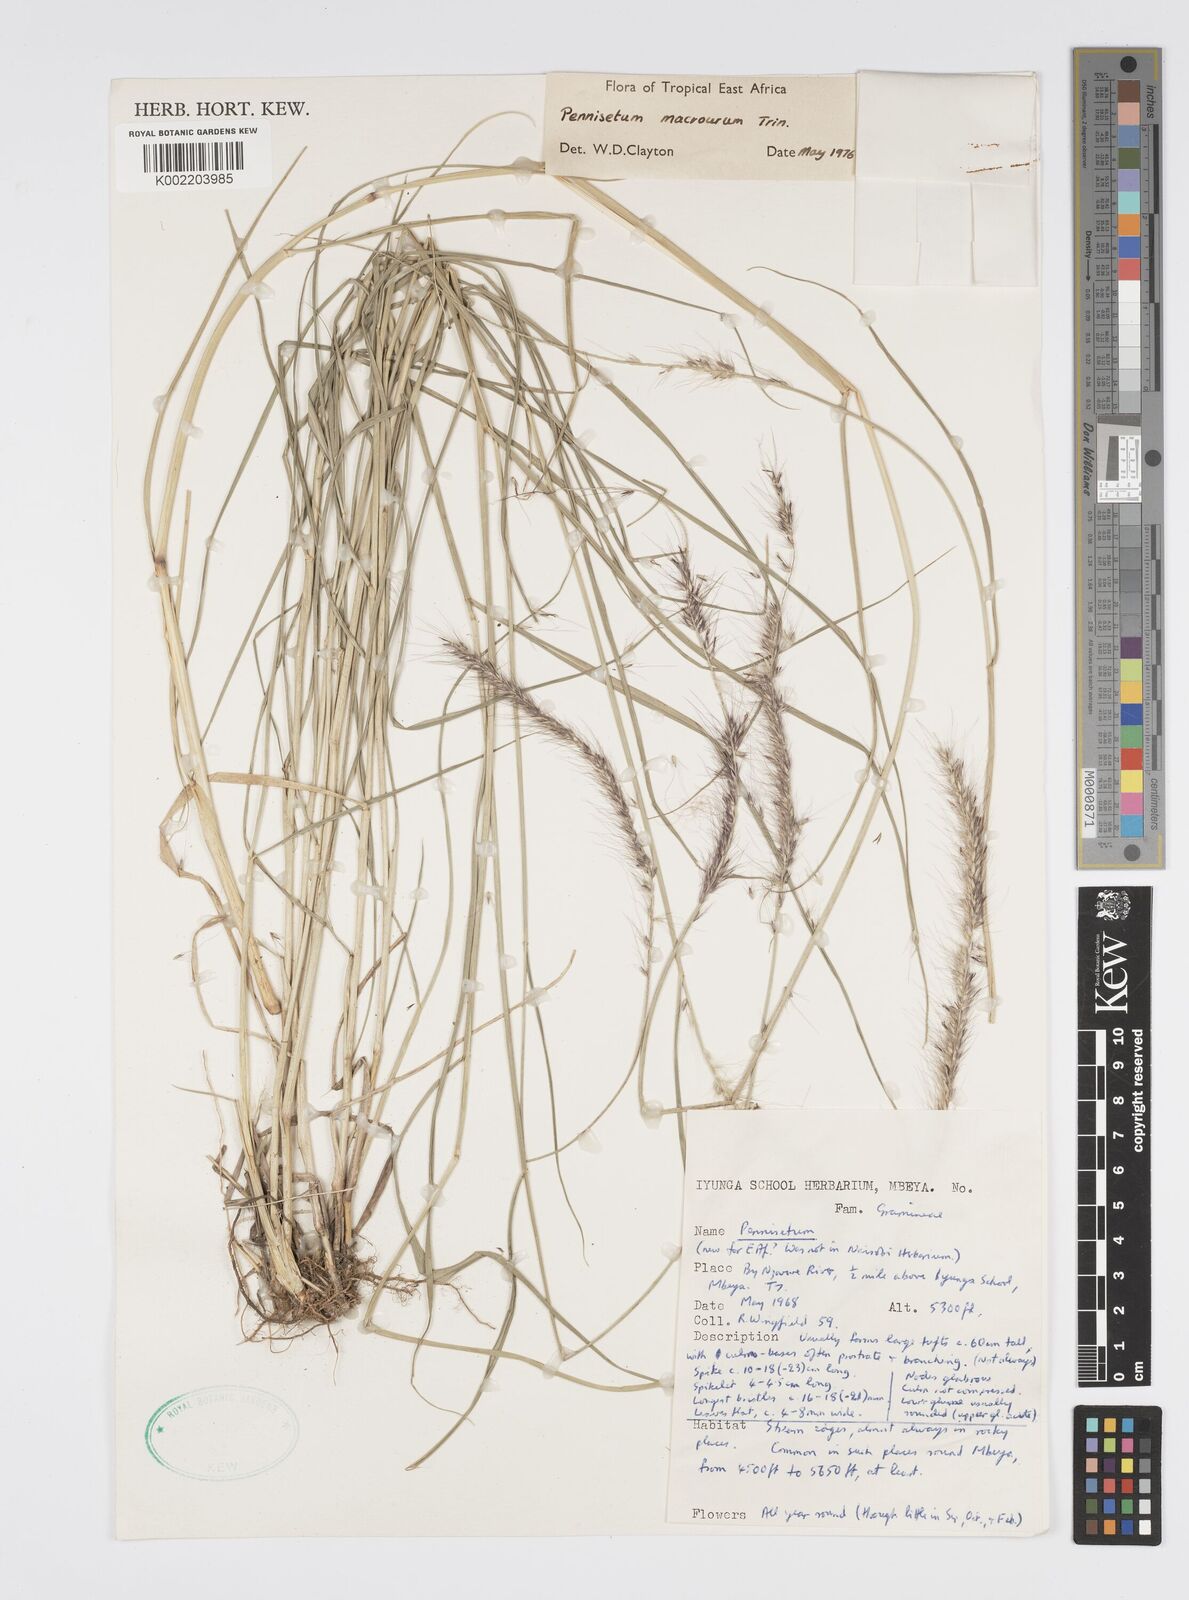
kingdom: Plantae
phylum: Tracheophyta
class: Liliopsida
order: Poales
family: Poaceae
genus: Cenchrus
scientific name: Cenchrus caudatus
